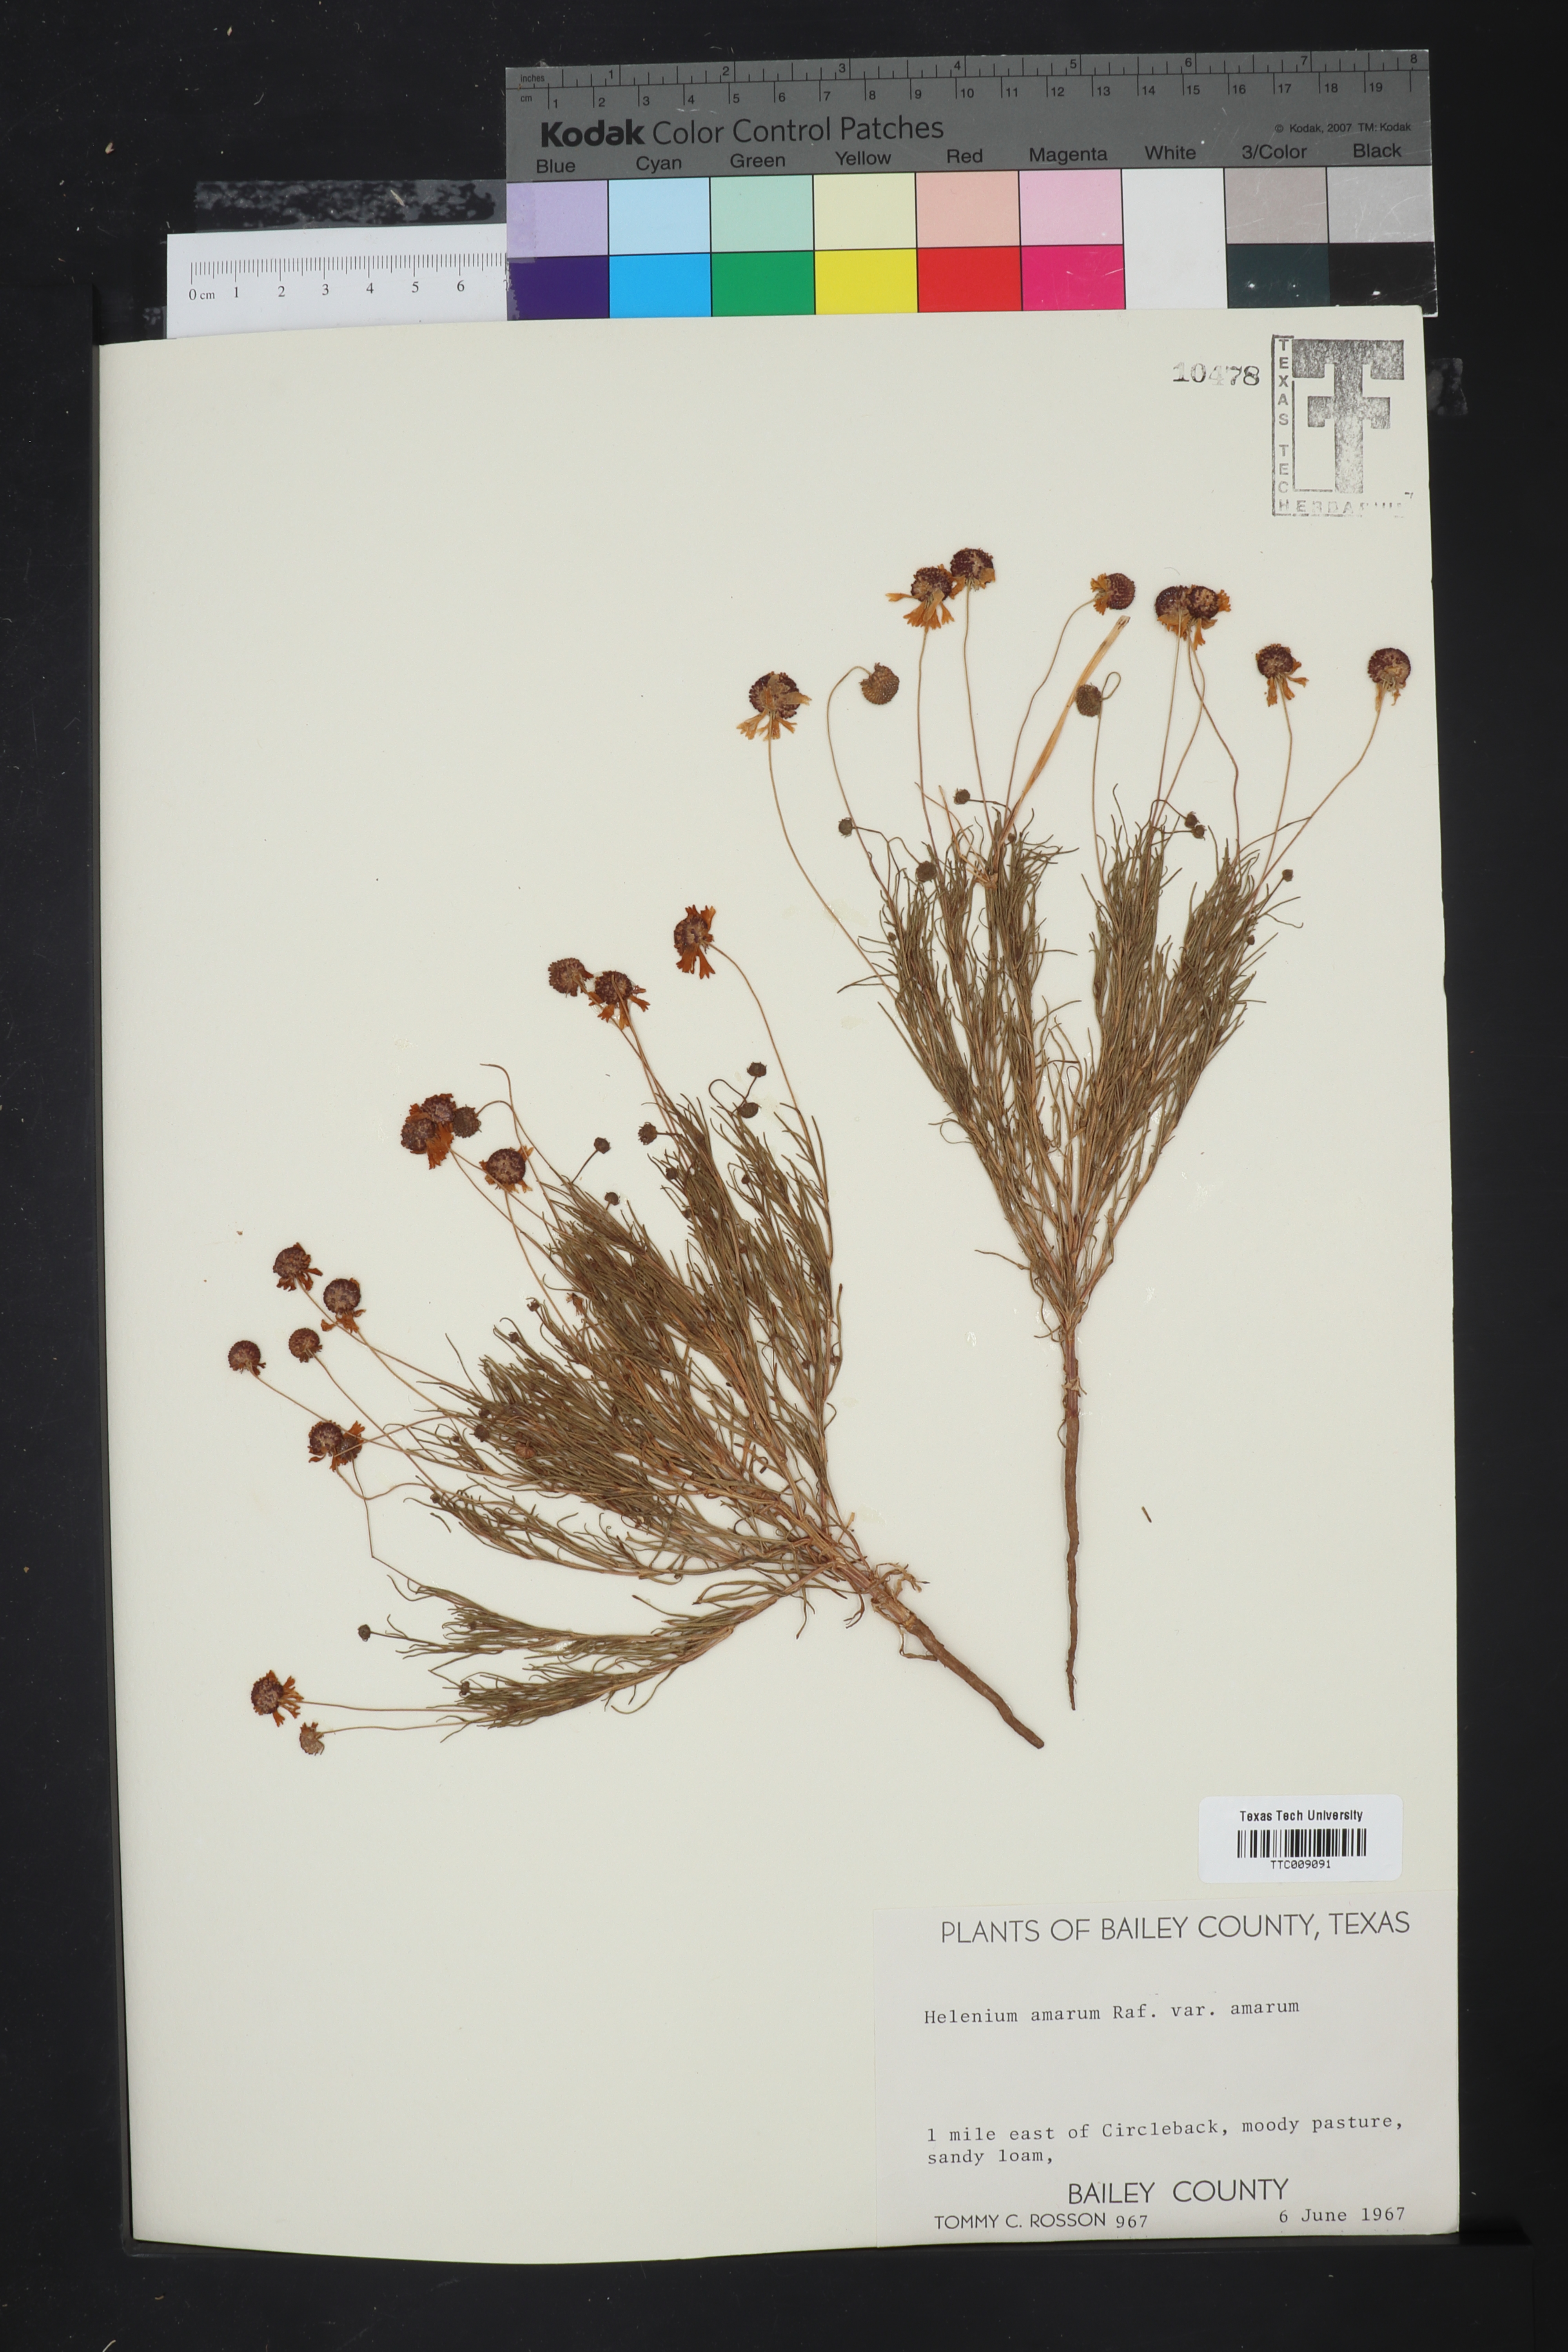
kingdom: Plantae
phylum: Tracheophyta
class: Magnoliopsida
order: Asterales
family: Asteraceae
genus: Helenium
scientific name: Helenium amarum
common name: Bitter sneezeweed
